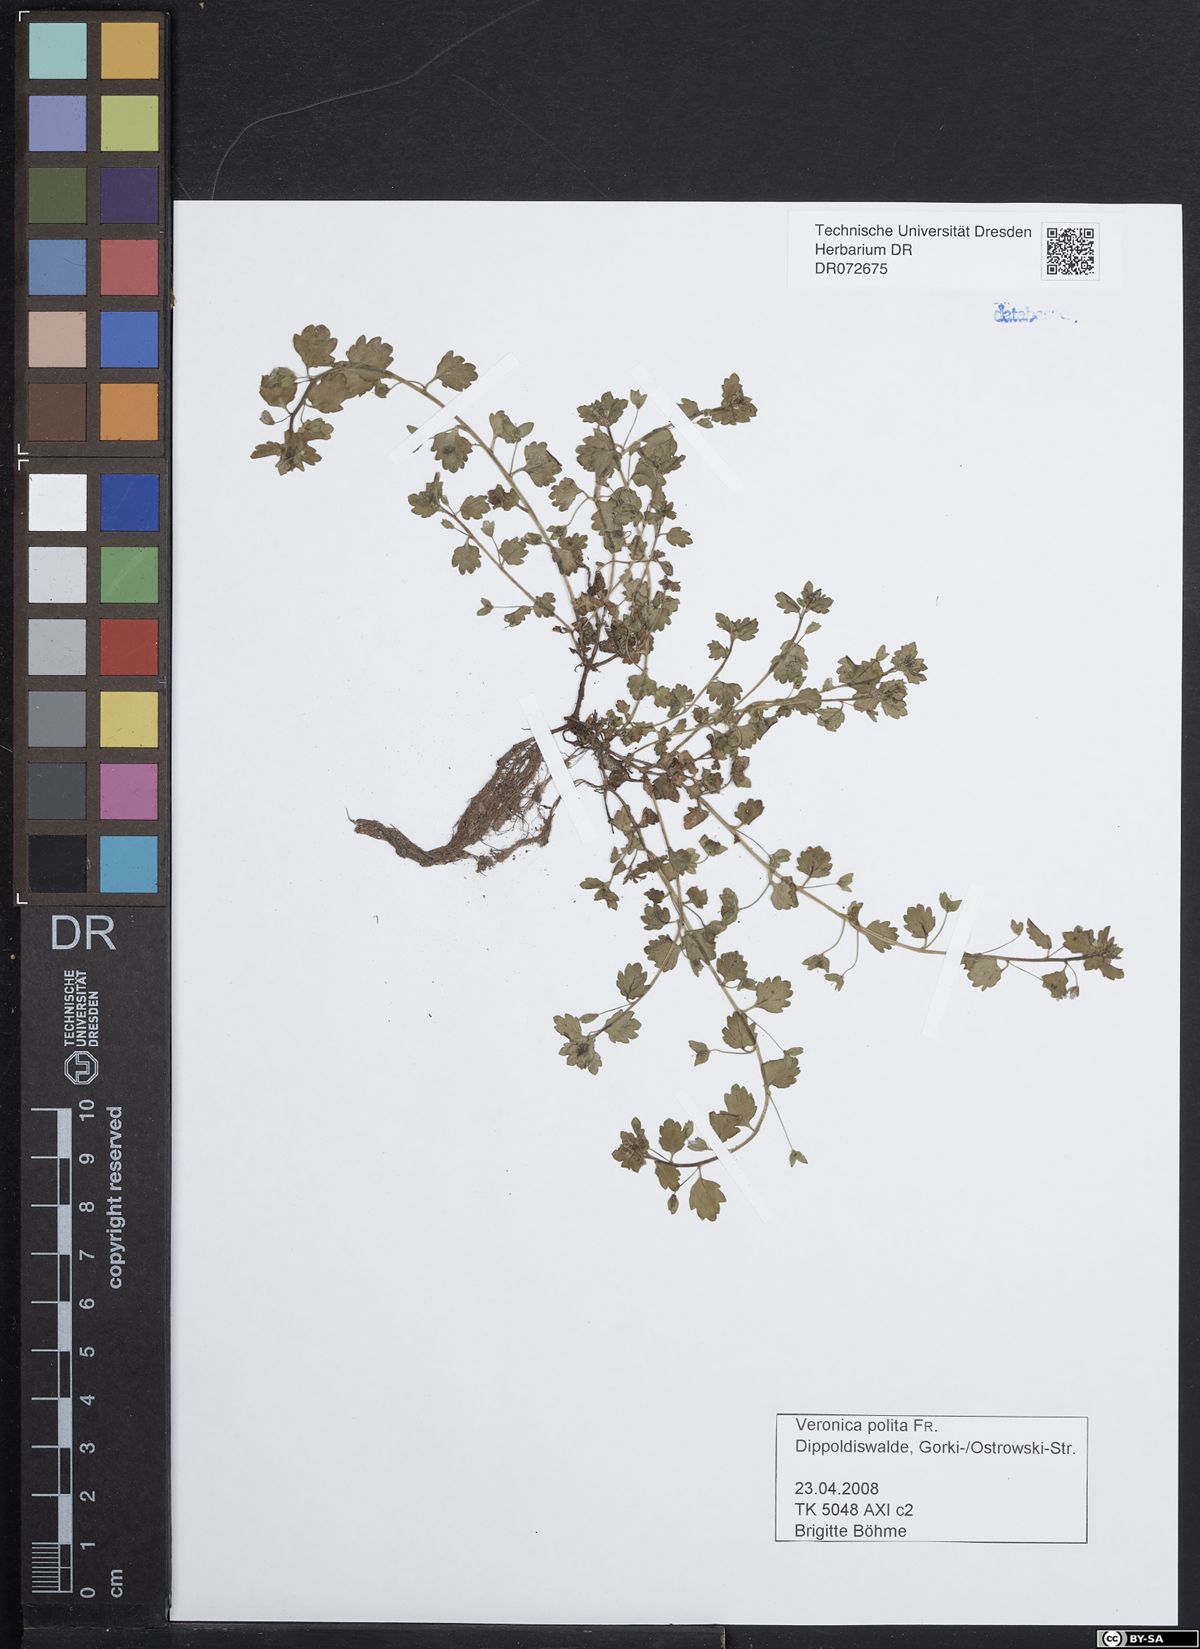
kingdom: Plantae
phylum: Tracheophyta
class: Magnoliopsida
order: Lamiales
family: Plantaginaceae
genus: Veronica
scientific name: Veronica polita
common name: Grey field-speedwell
